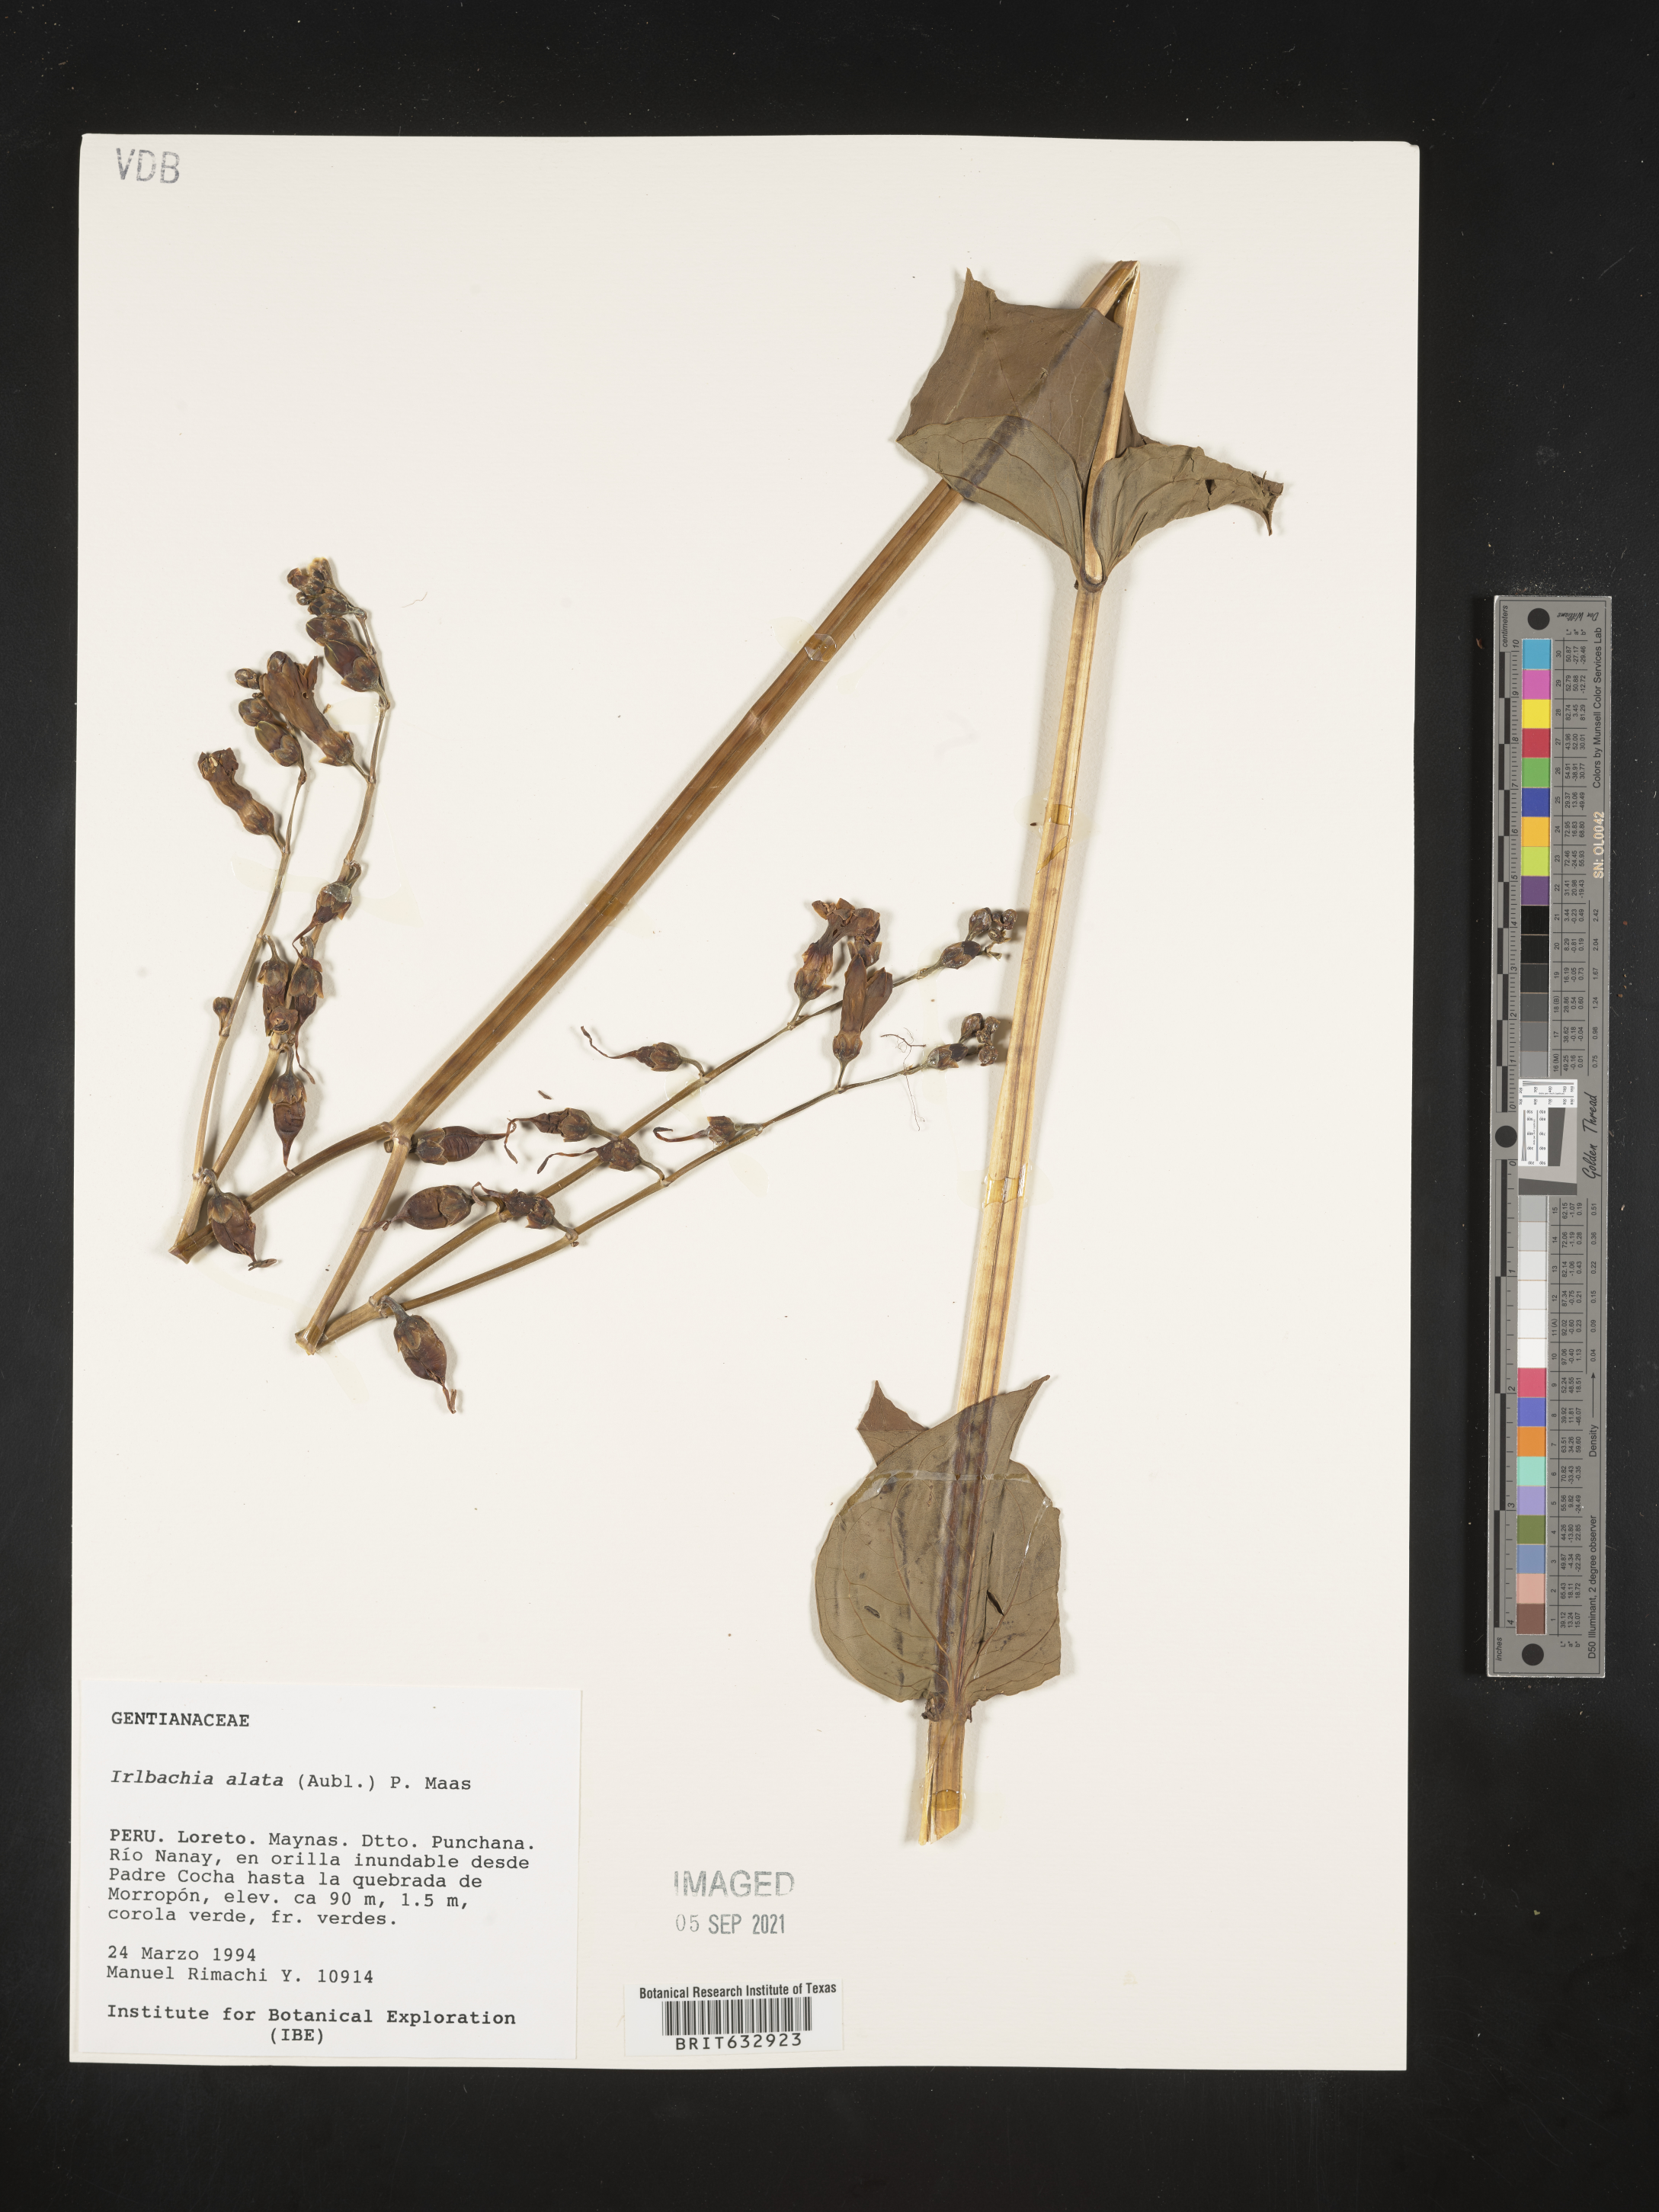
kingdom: Plantae
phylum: Tracheophyta
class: Magnoliopsida
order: Gentianales
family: Gentianaceae
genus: Irlbachia
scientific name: Irlbachia
